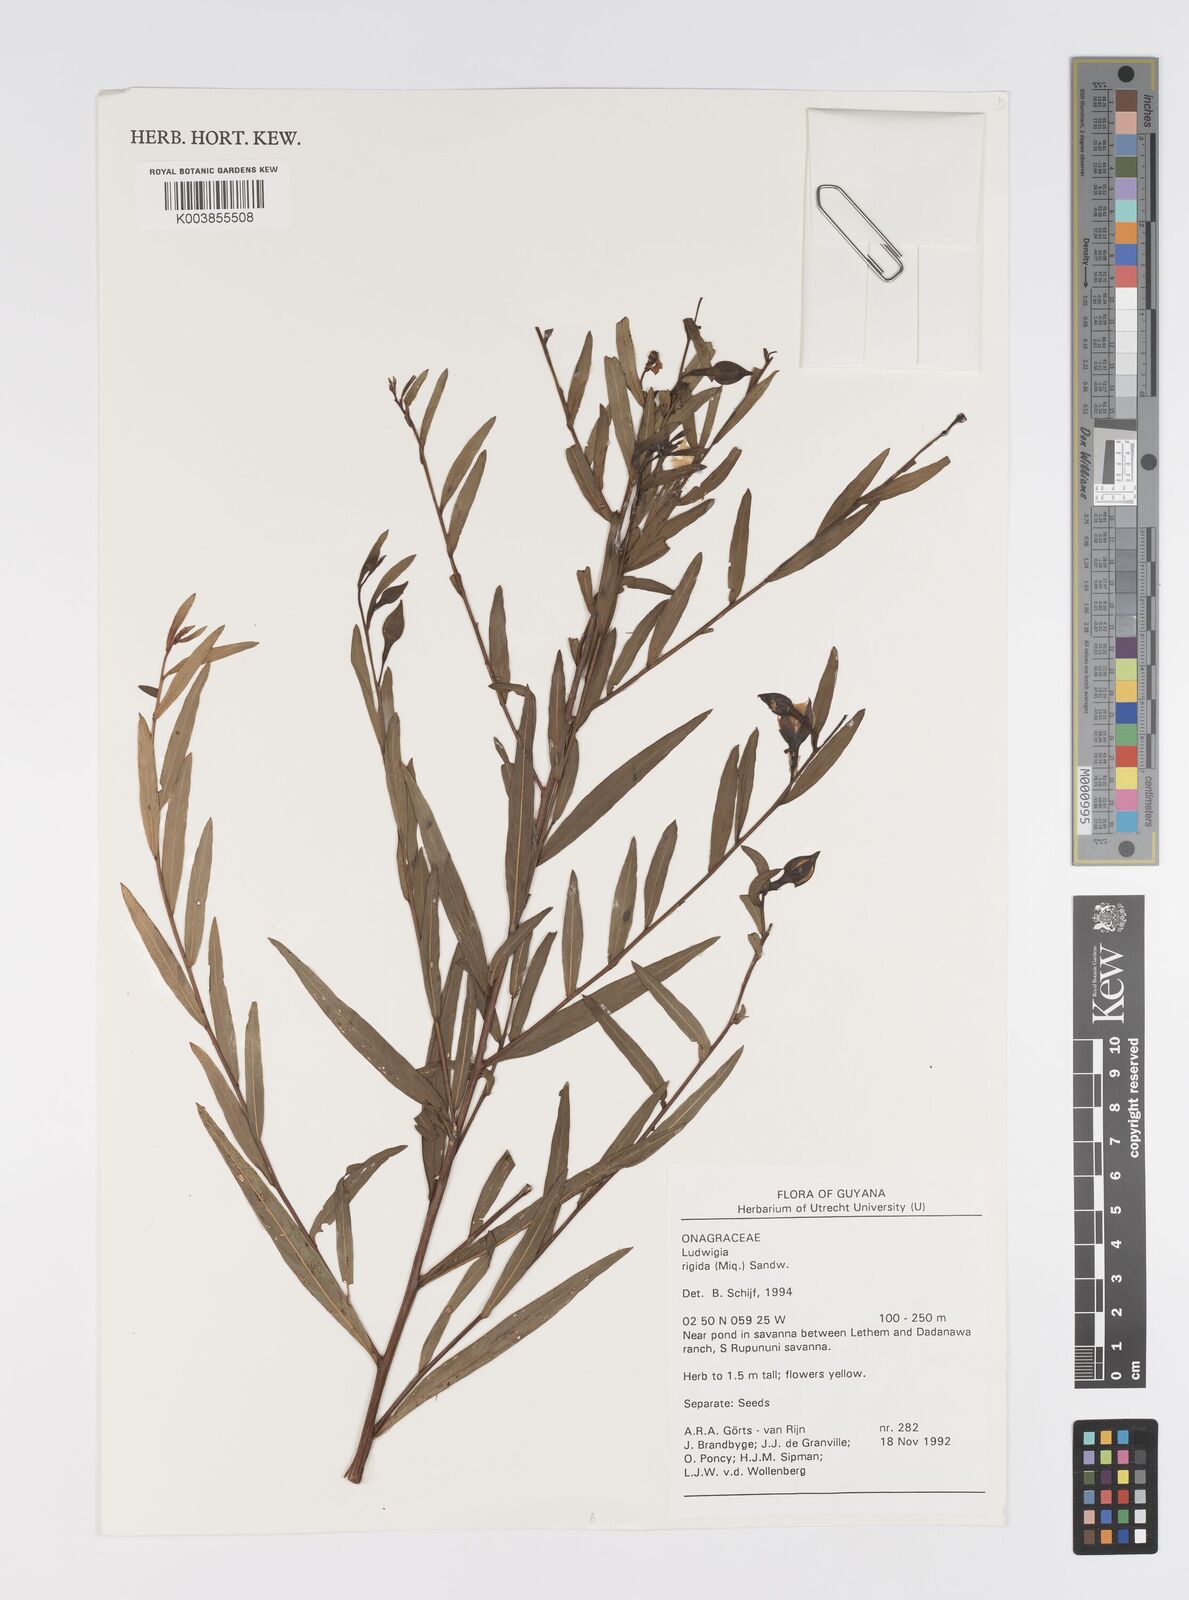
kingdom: Plantae
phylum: Tracheophyta
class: Magnoliopsida
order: Myrtales
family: Onagraceae
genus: Ludwigia
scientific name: Ludwigia rigida
